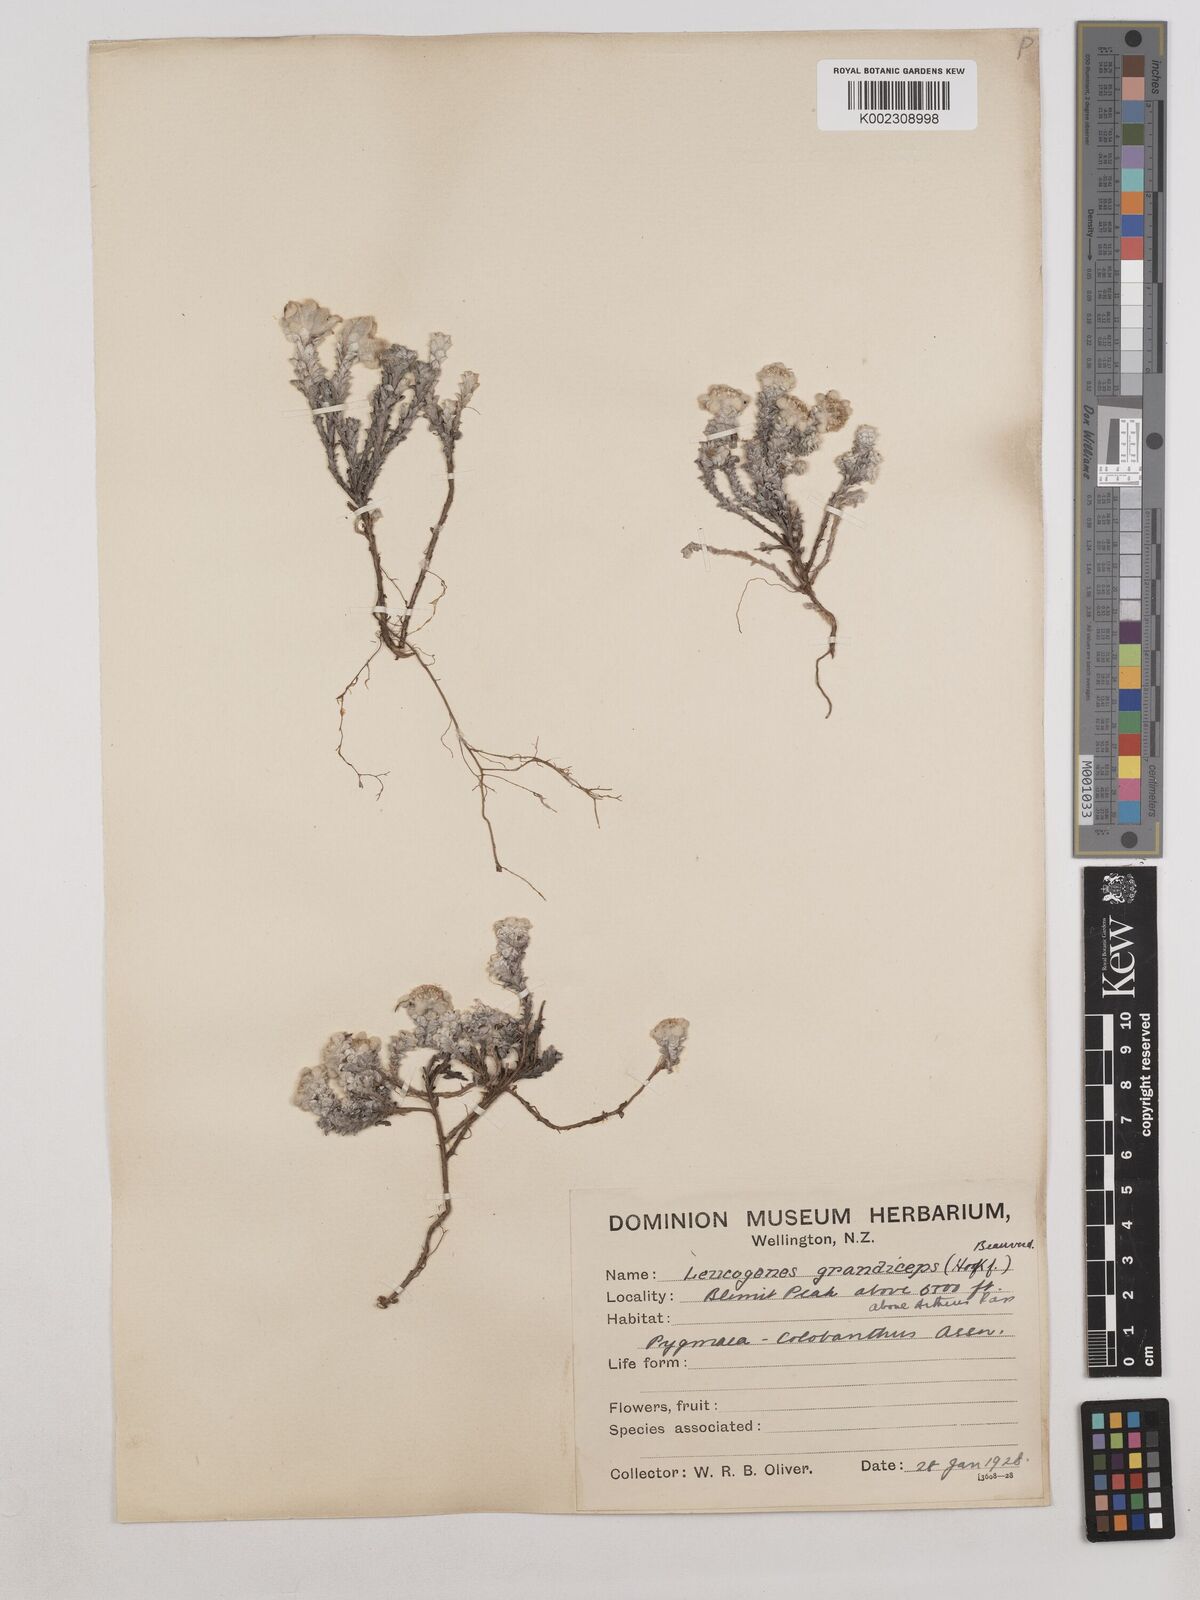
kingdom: Plantae
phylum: Tracheophyta
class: Magnoliopsida
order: Asterales
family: Asteraceae
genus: Leucogenes
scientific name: Leucogenes grandiceps
